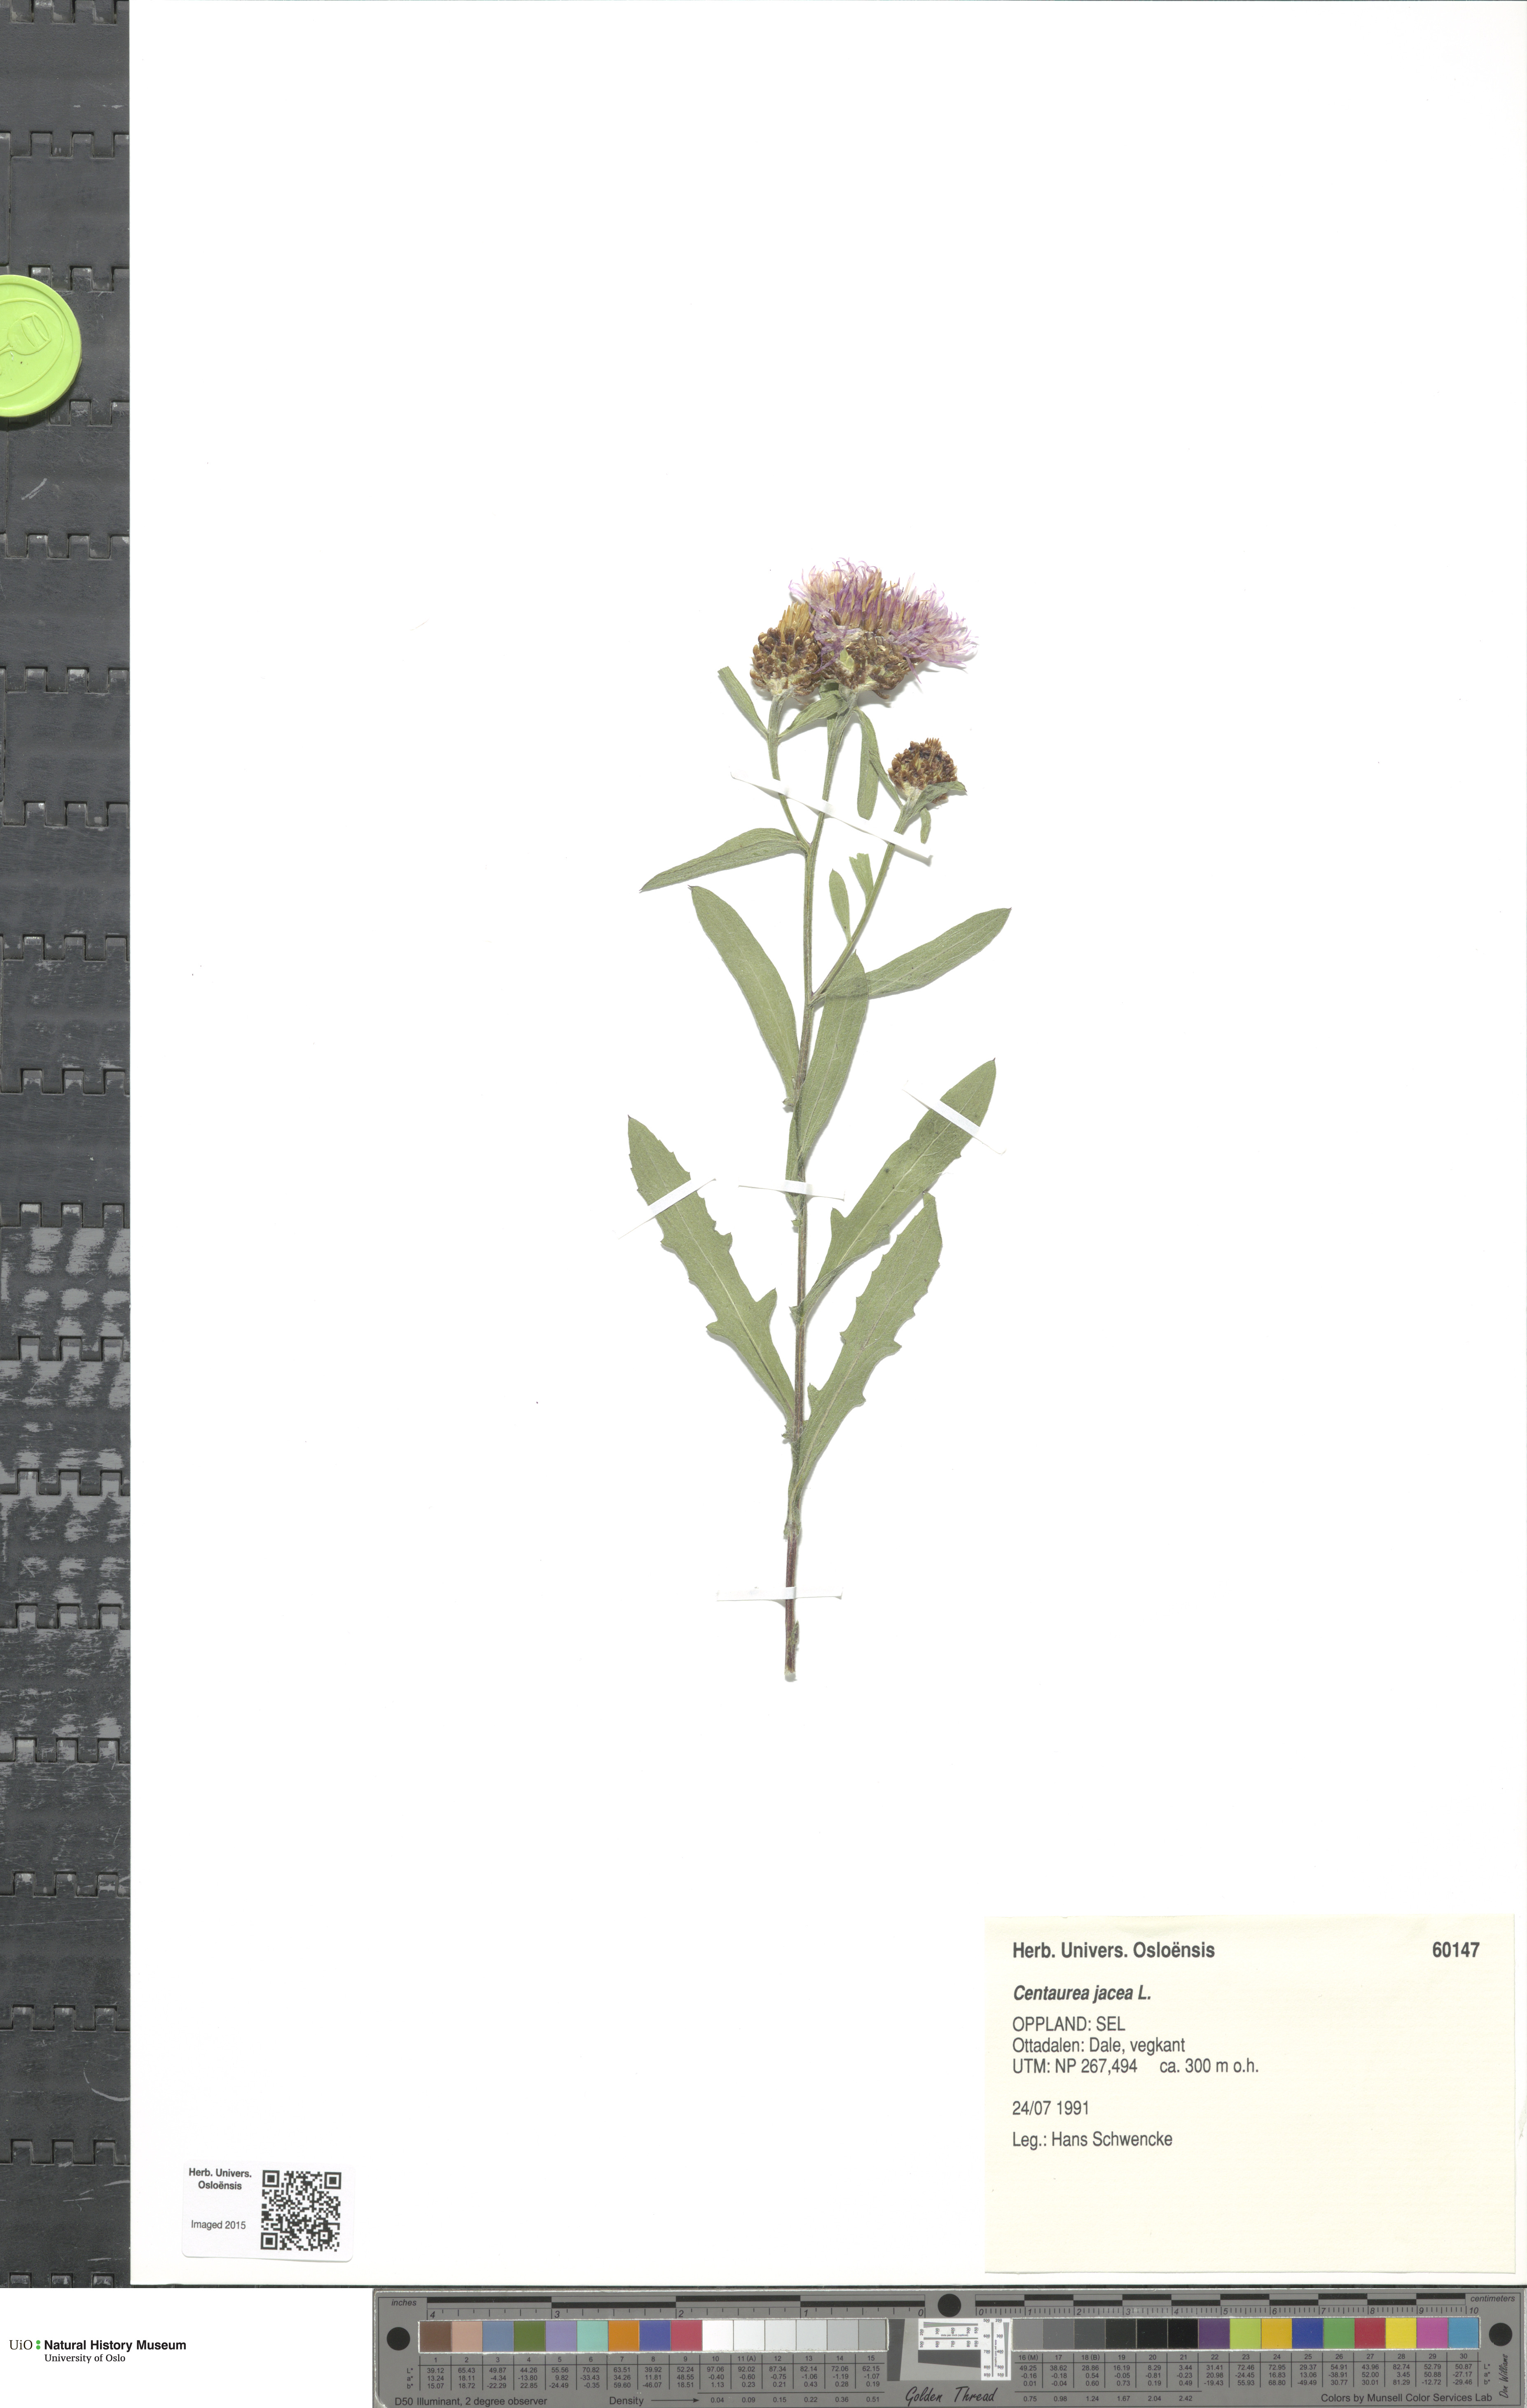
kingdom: Plantae
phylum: Tracheophyta
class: Magnoliopsida
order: Asterales
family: Asteraceae
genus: Centaurea
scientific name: Centaurea jacea
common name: Brown knapweed
